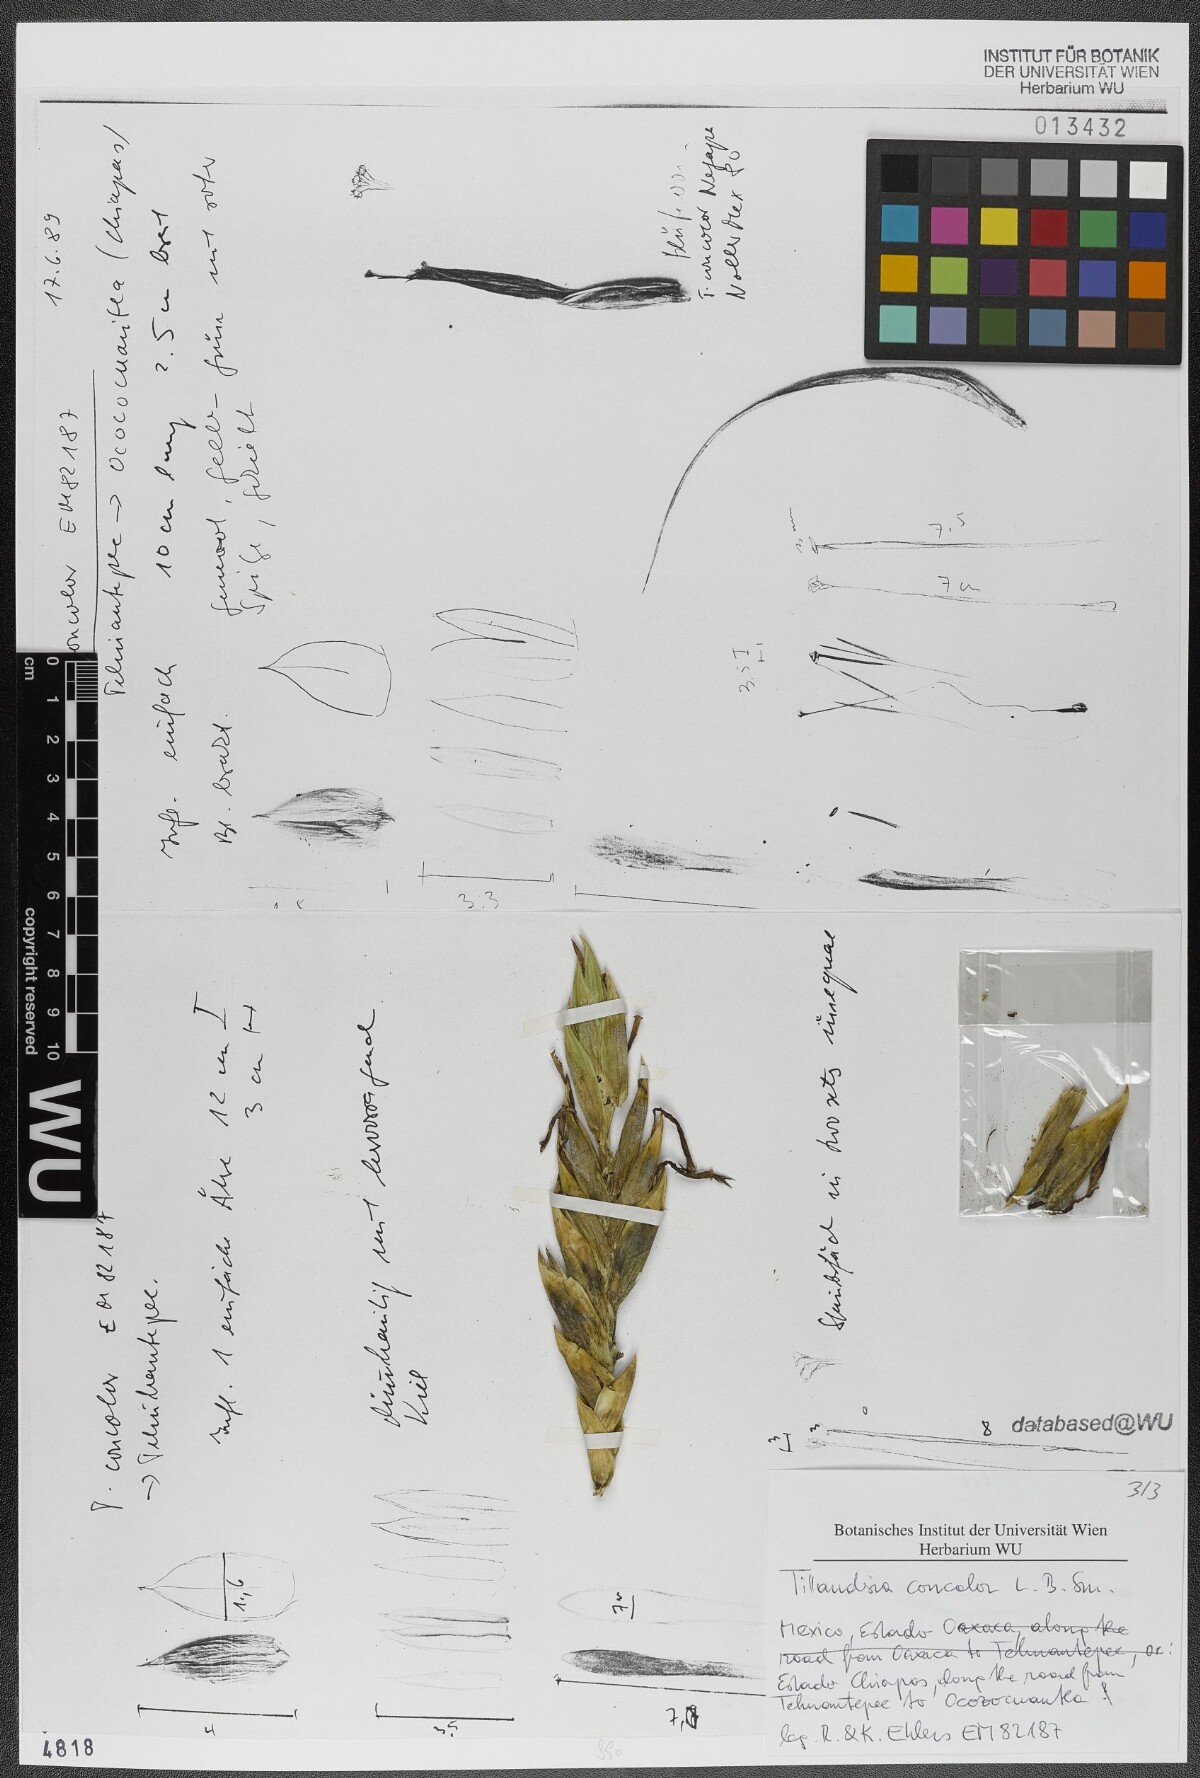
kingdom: Plantae
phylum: Tracheophyta
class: Liliopsida
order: Poales
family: Bromeliaceae
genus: Tillandsia
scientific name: Tillandsia concolor
